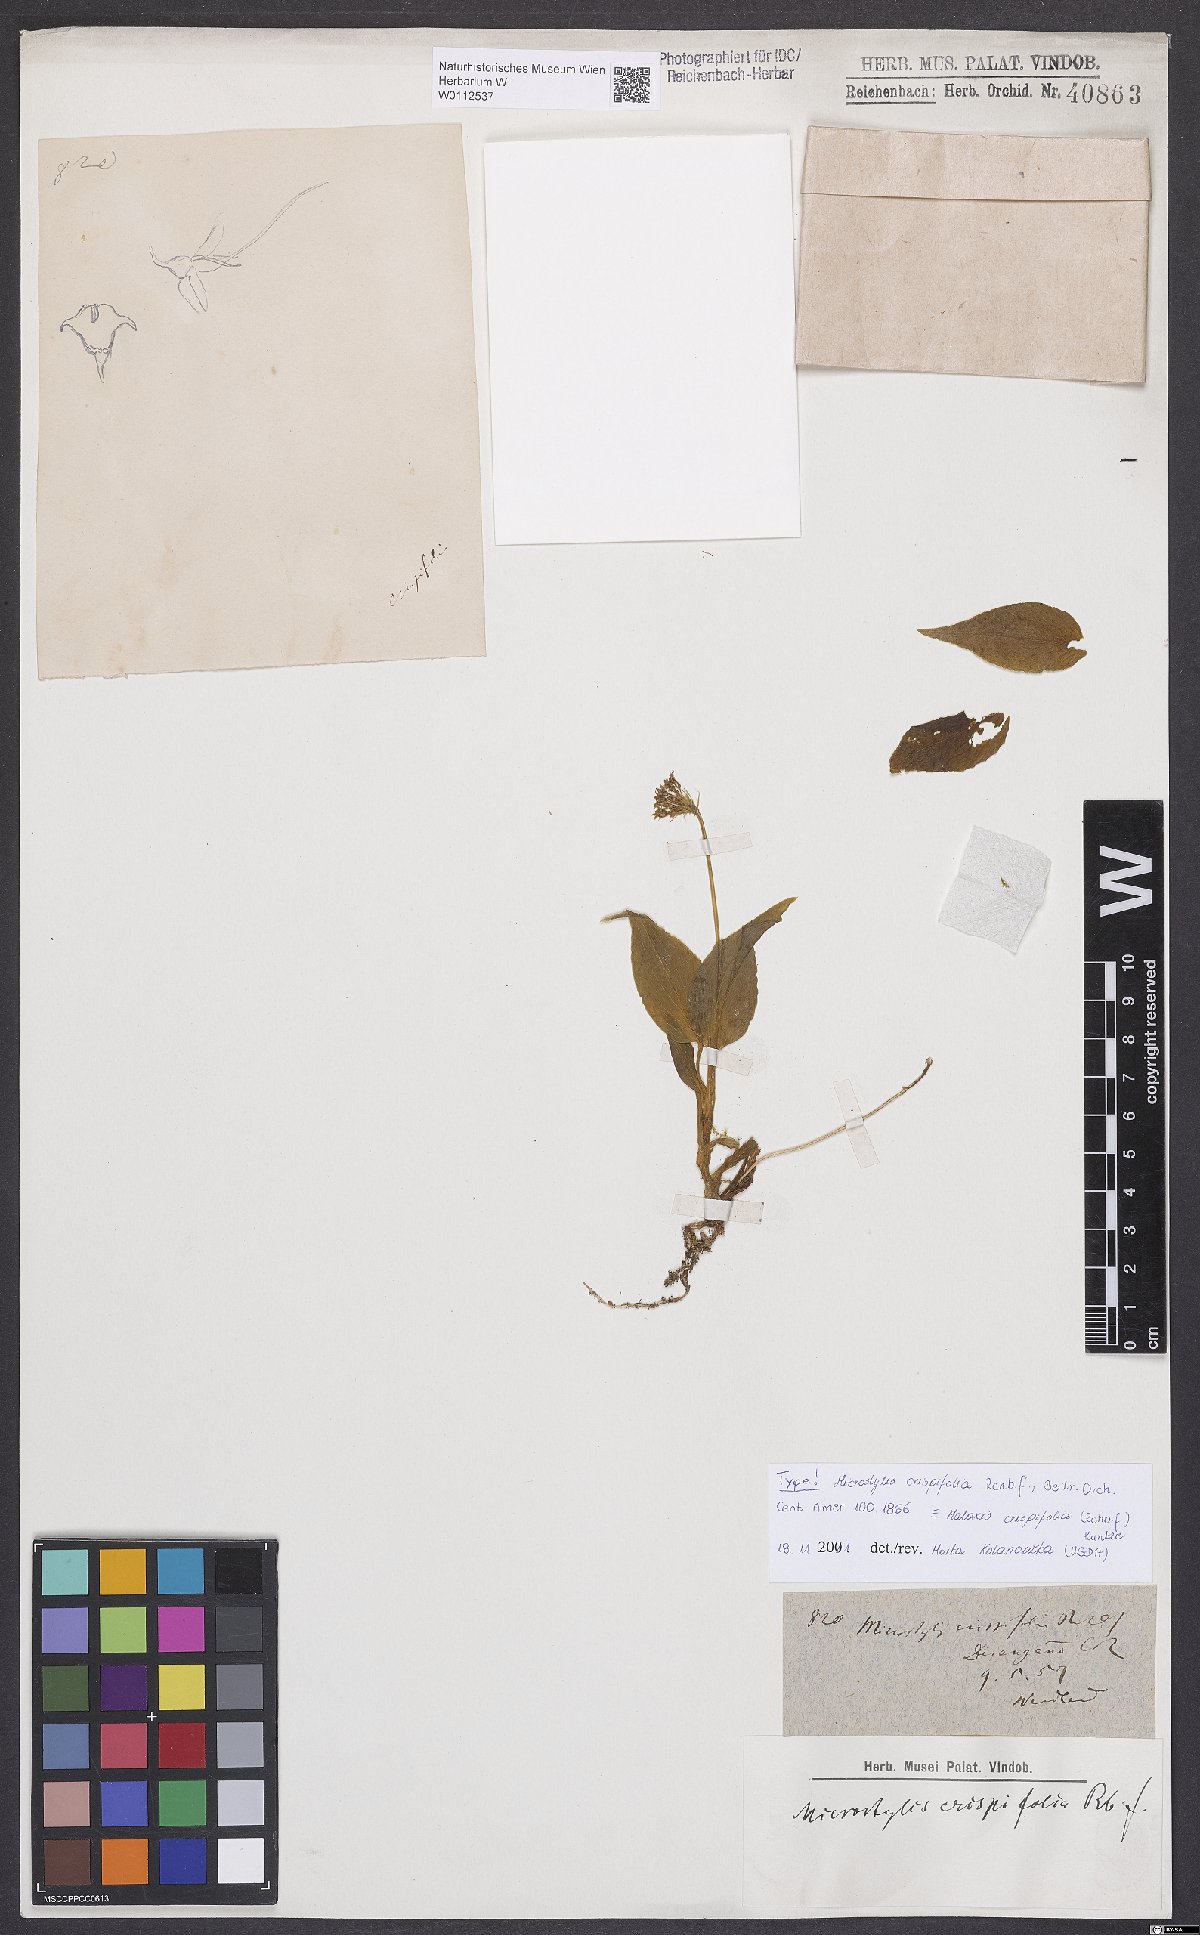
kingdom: Plantae
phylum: Tracheophyta
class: Liliopsida
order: Asparagales
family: Orchidaceae
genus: Malaxis
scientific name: Malaxis crispifolia
